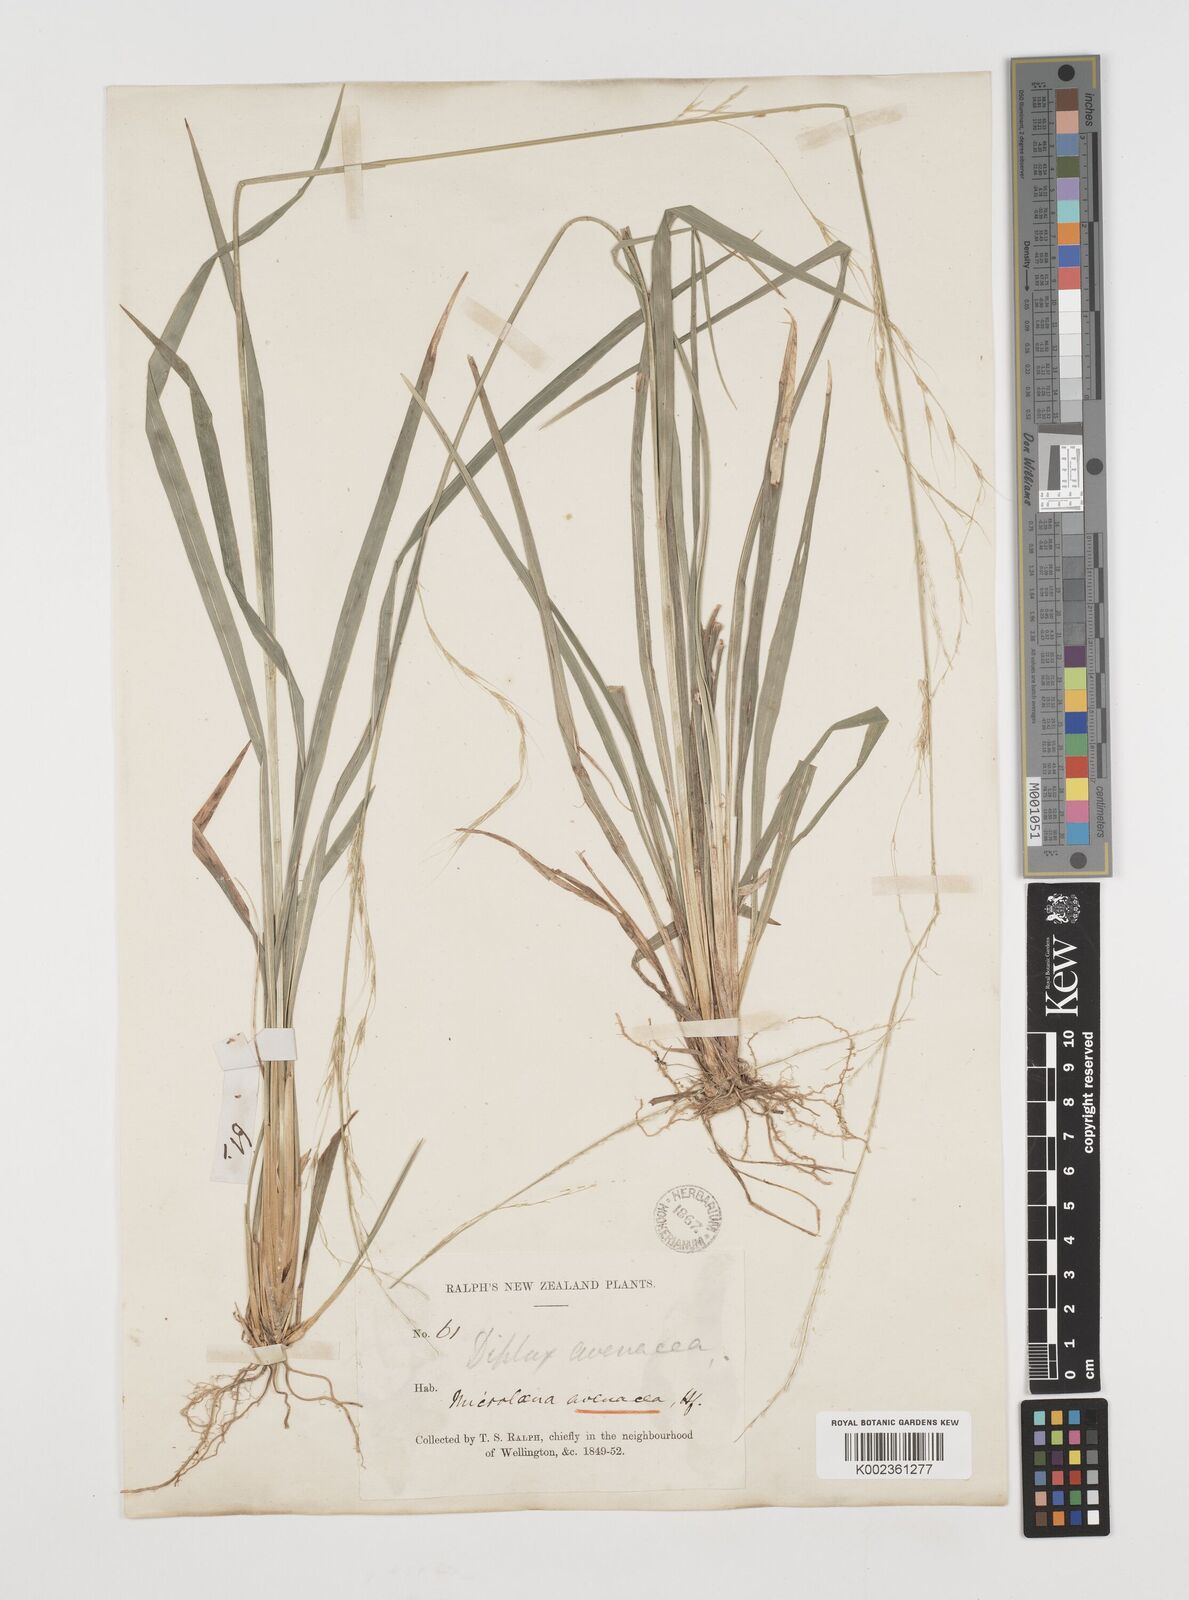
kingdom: Plantae
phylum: Tracheophyta
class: Liliopsida
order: Poales
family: Poaceae
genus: Ehrharta
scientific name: Ehrharta diplax
